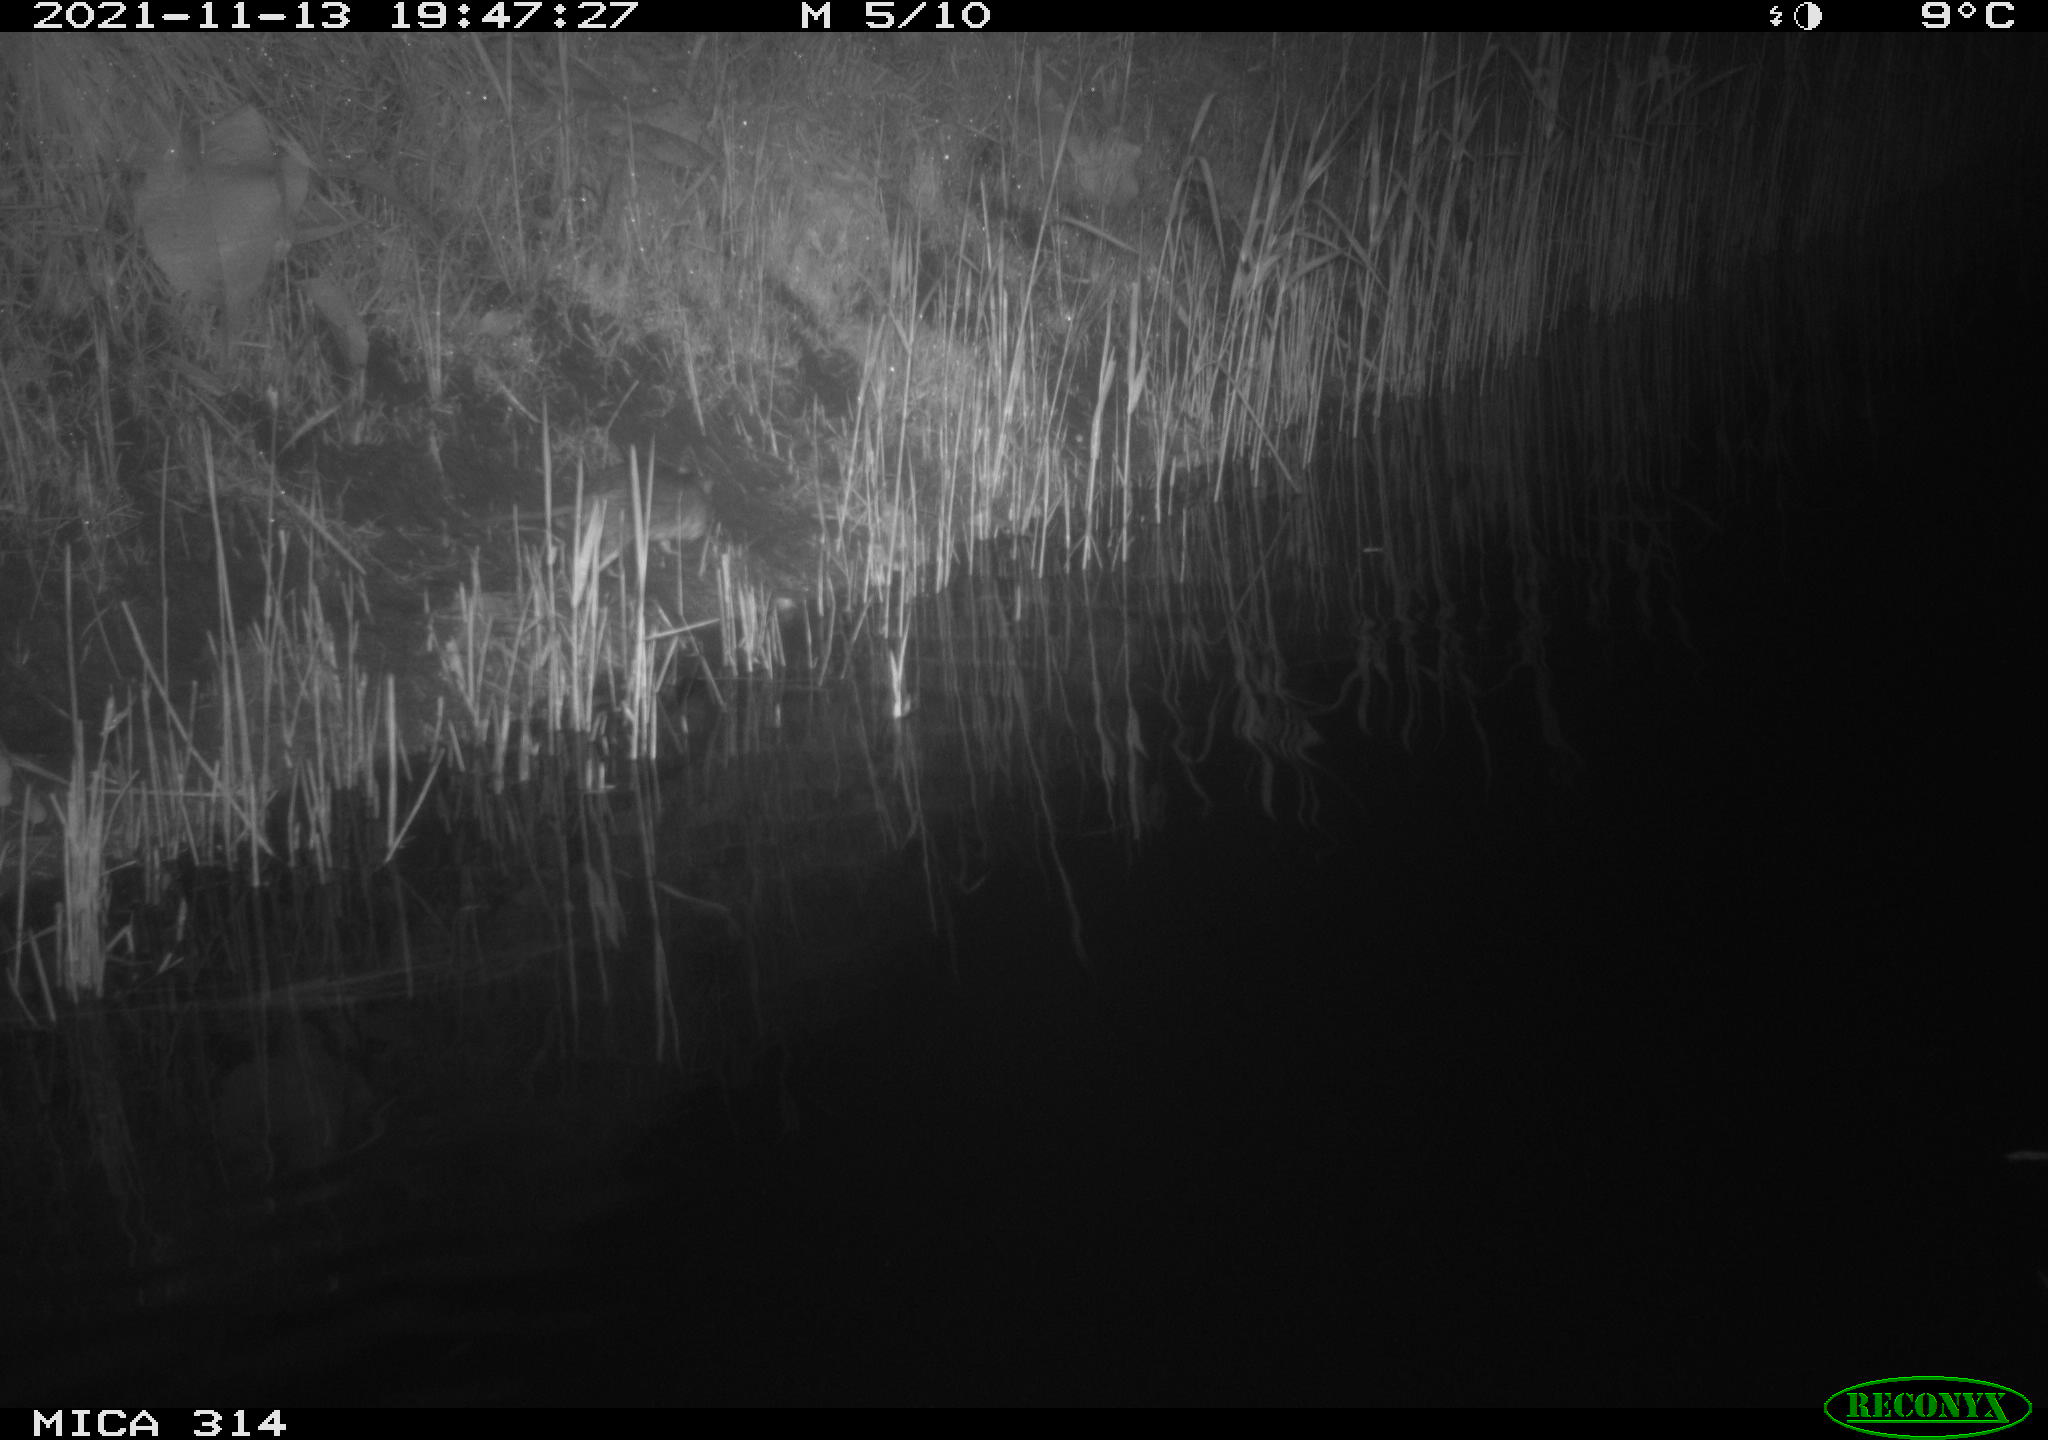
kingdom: Animalia
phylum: Chordata
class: Mammalia
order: Rodentia
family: Muridae
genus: Rattus
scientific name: Rattus norvegicus
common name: Brown rat
